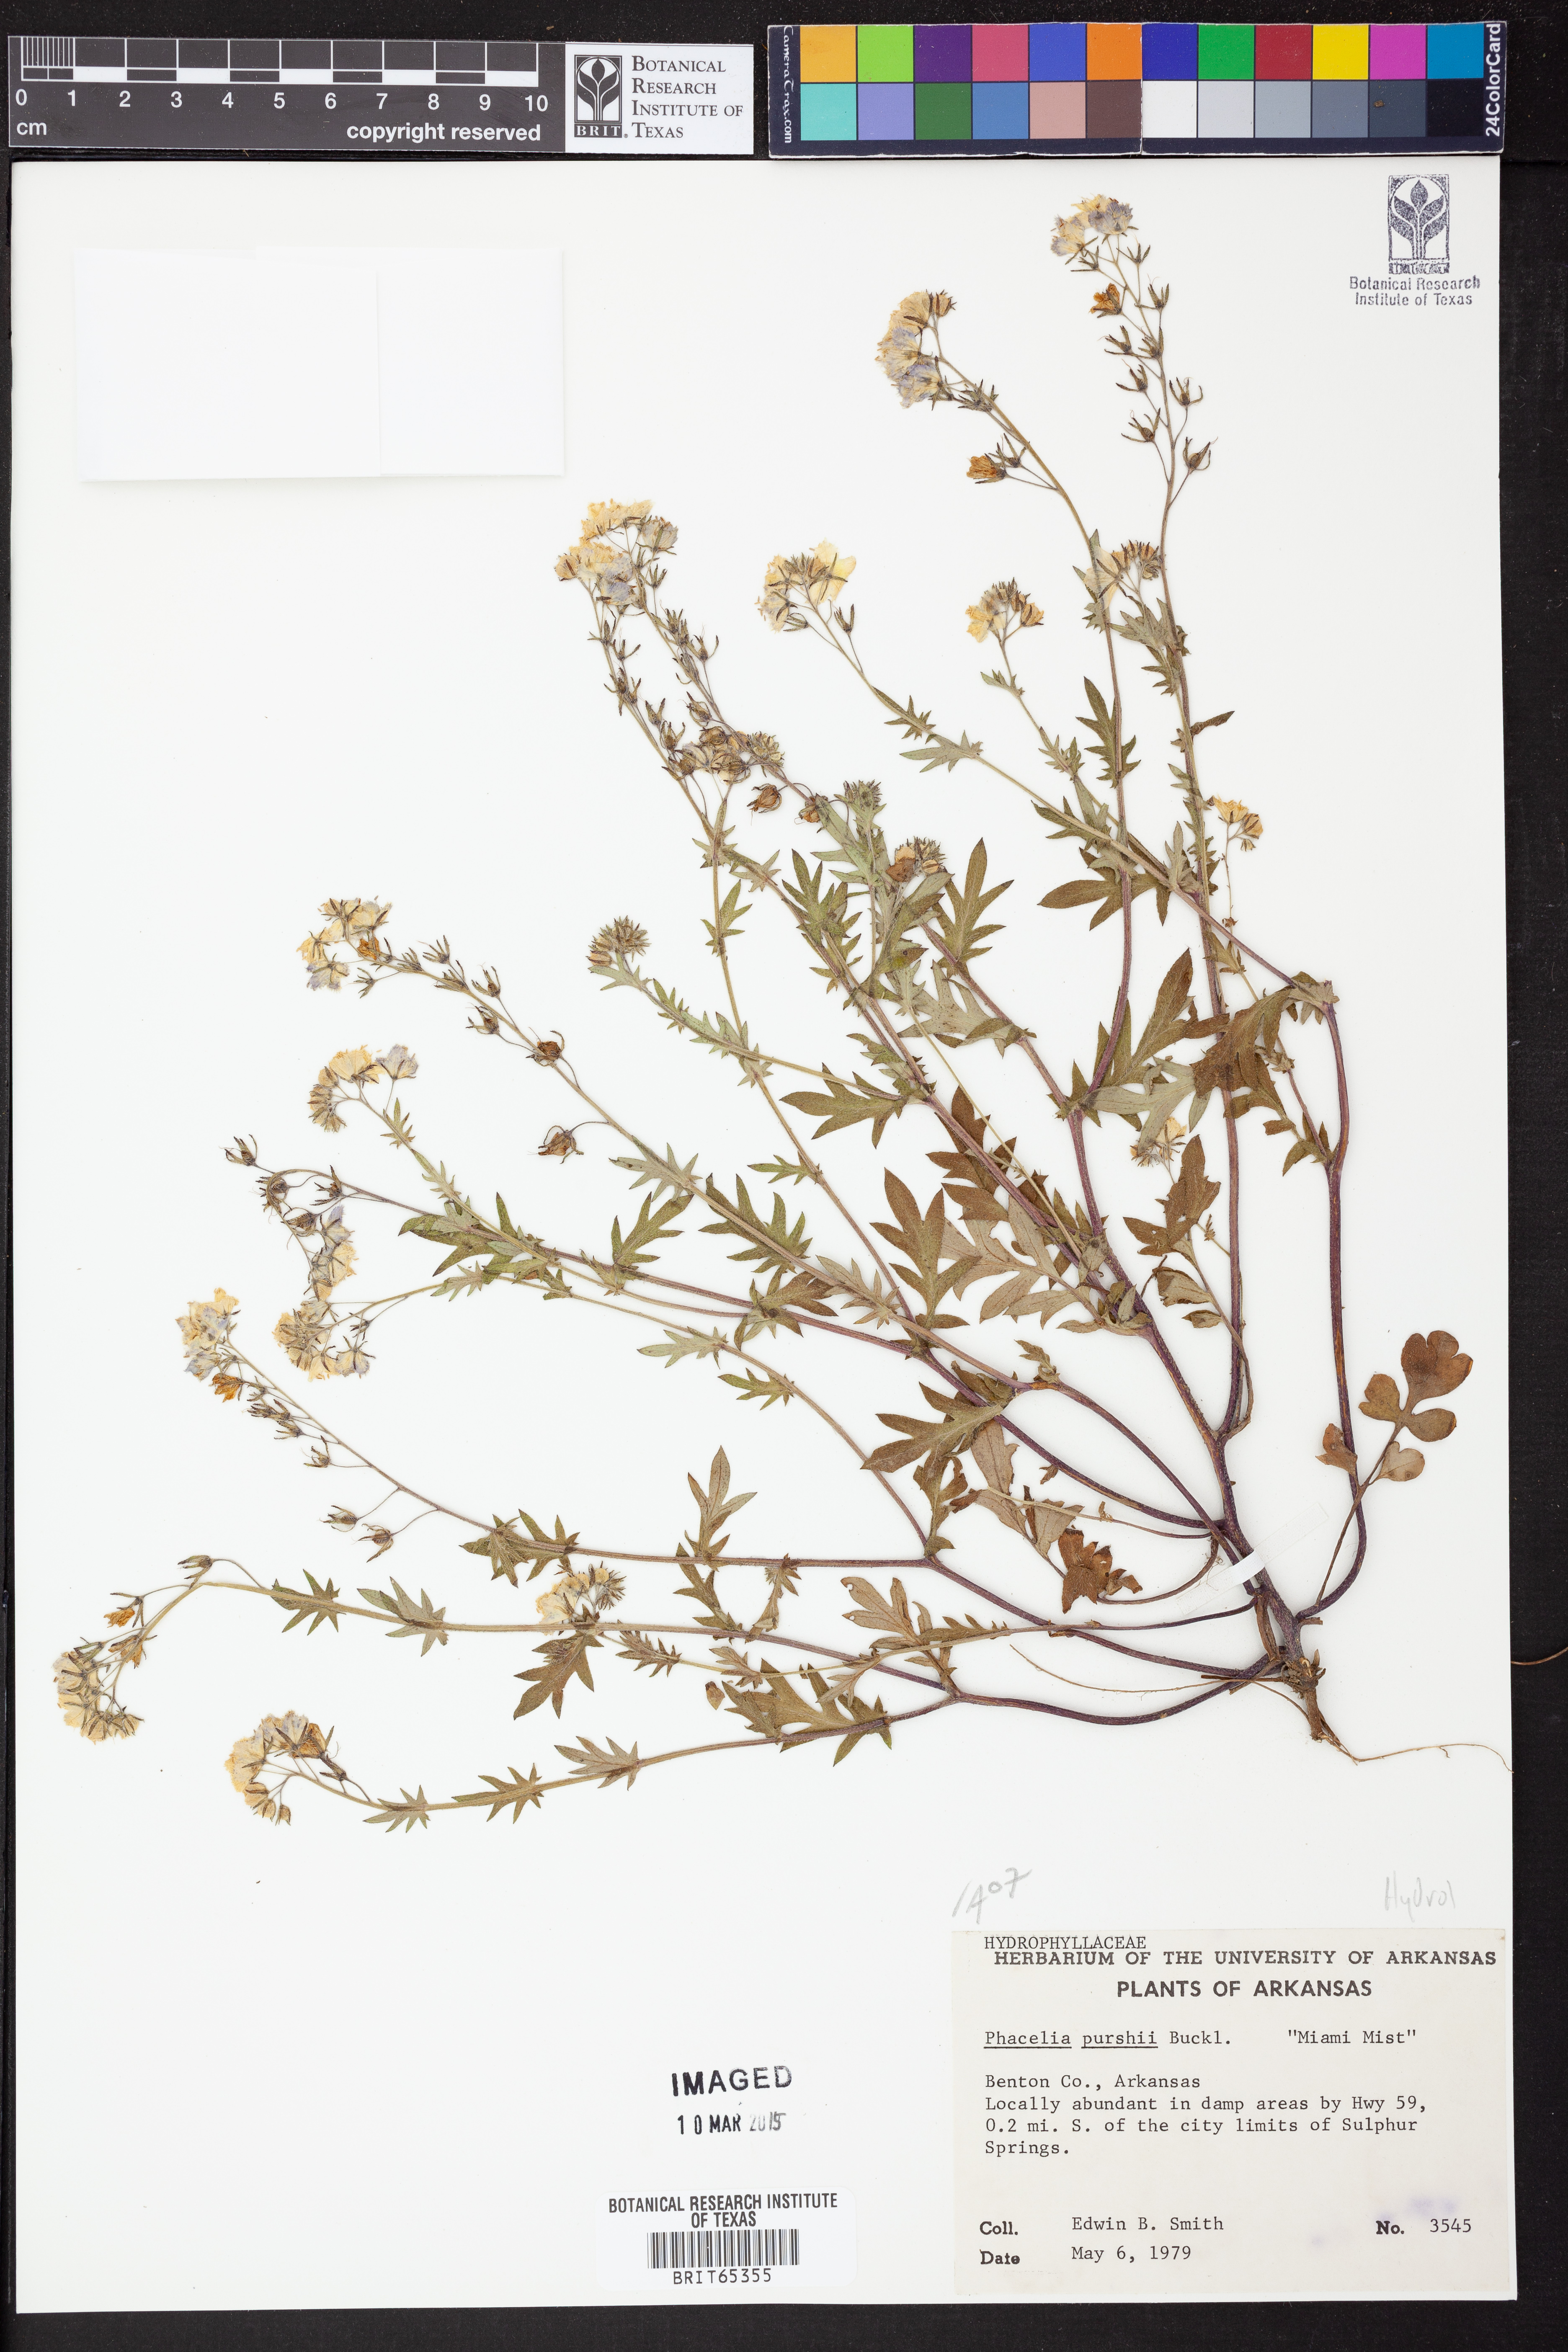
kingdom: Plantae
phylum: Tracheophyta
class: Magnoliopsida
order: Boraginales
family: Hydrophyllaceae
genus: Phacelia
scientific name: Phacelia
